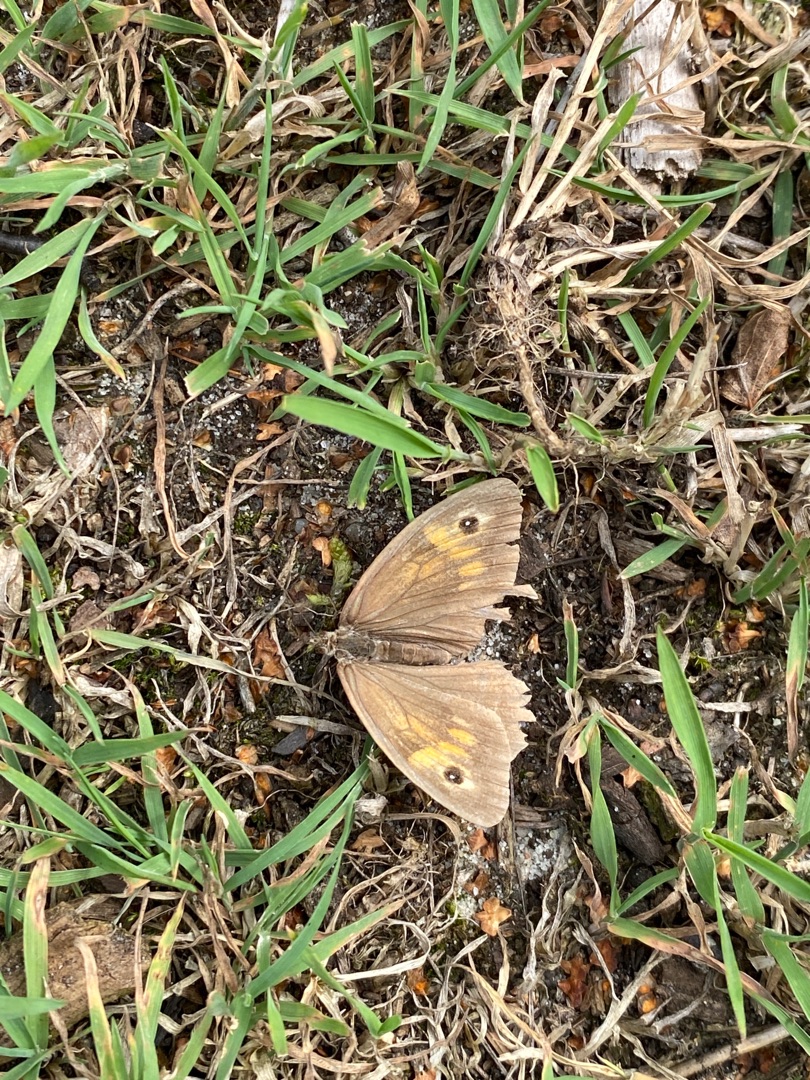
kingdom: Animalia
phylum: Arthropoda
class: Insecta
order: Lepidoptera
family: Nymphalidae
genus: Maniola
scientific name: Maniola jurtina
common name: Græsrandøje
